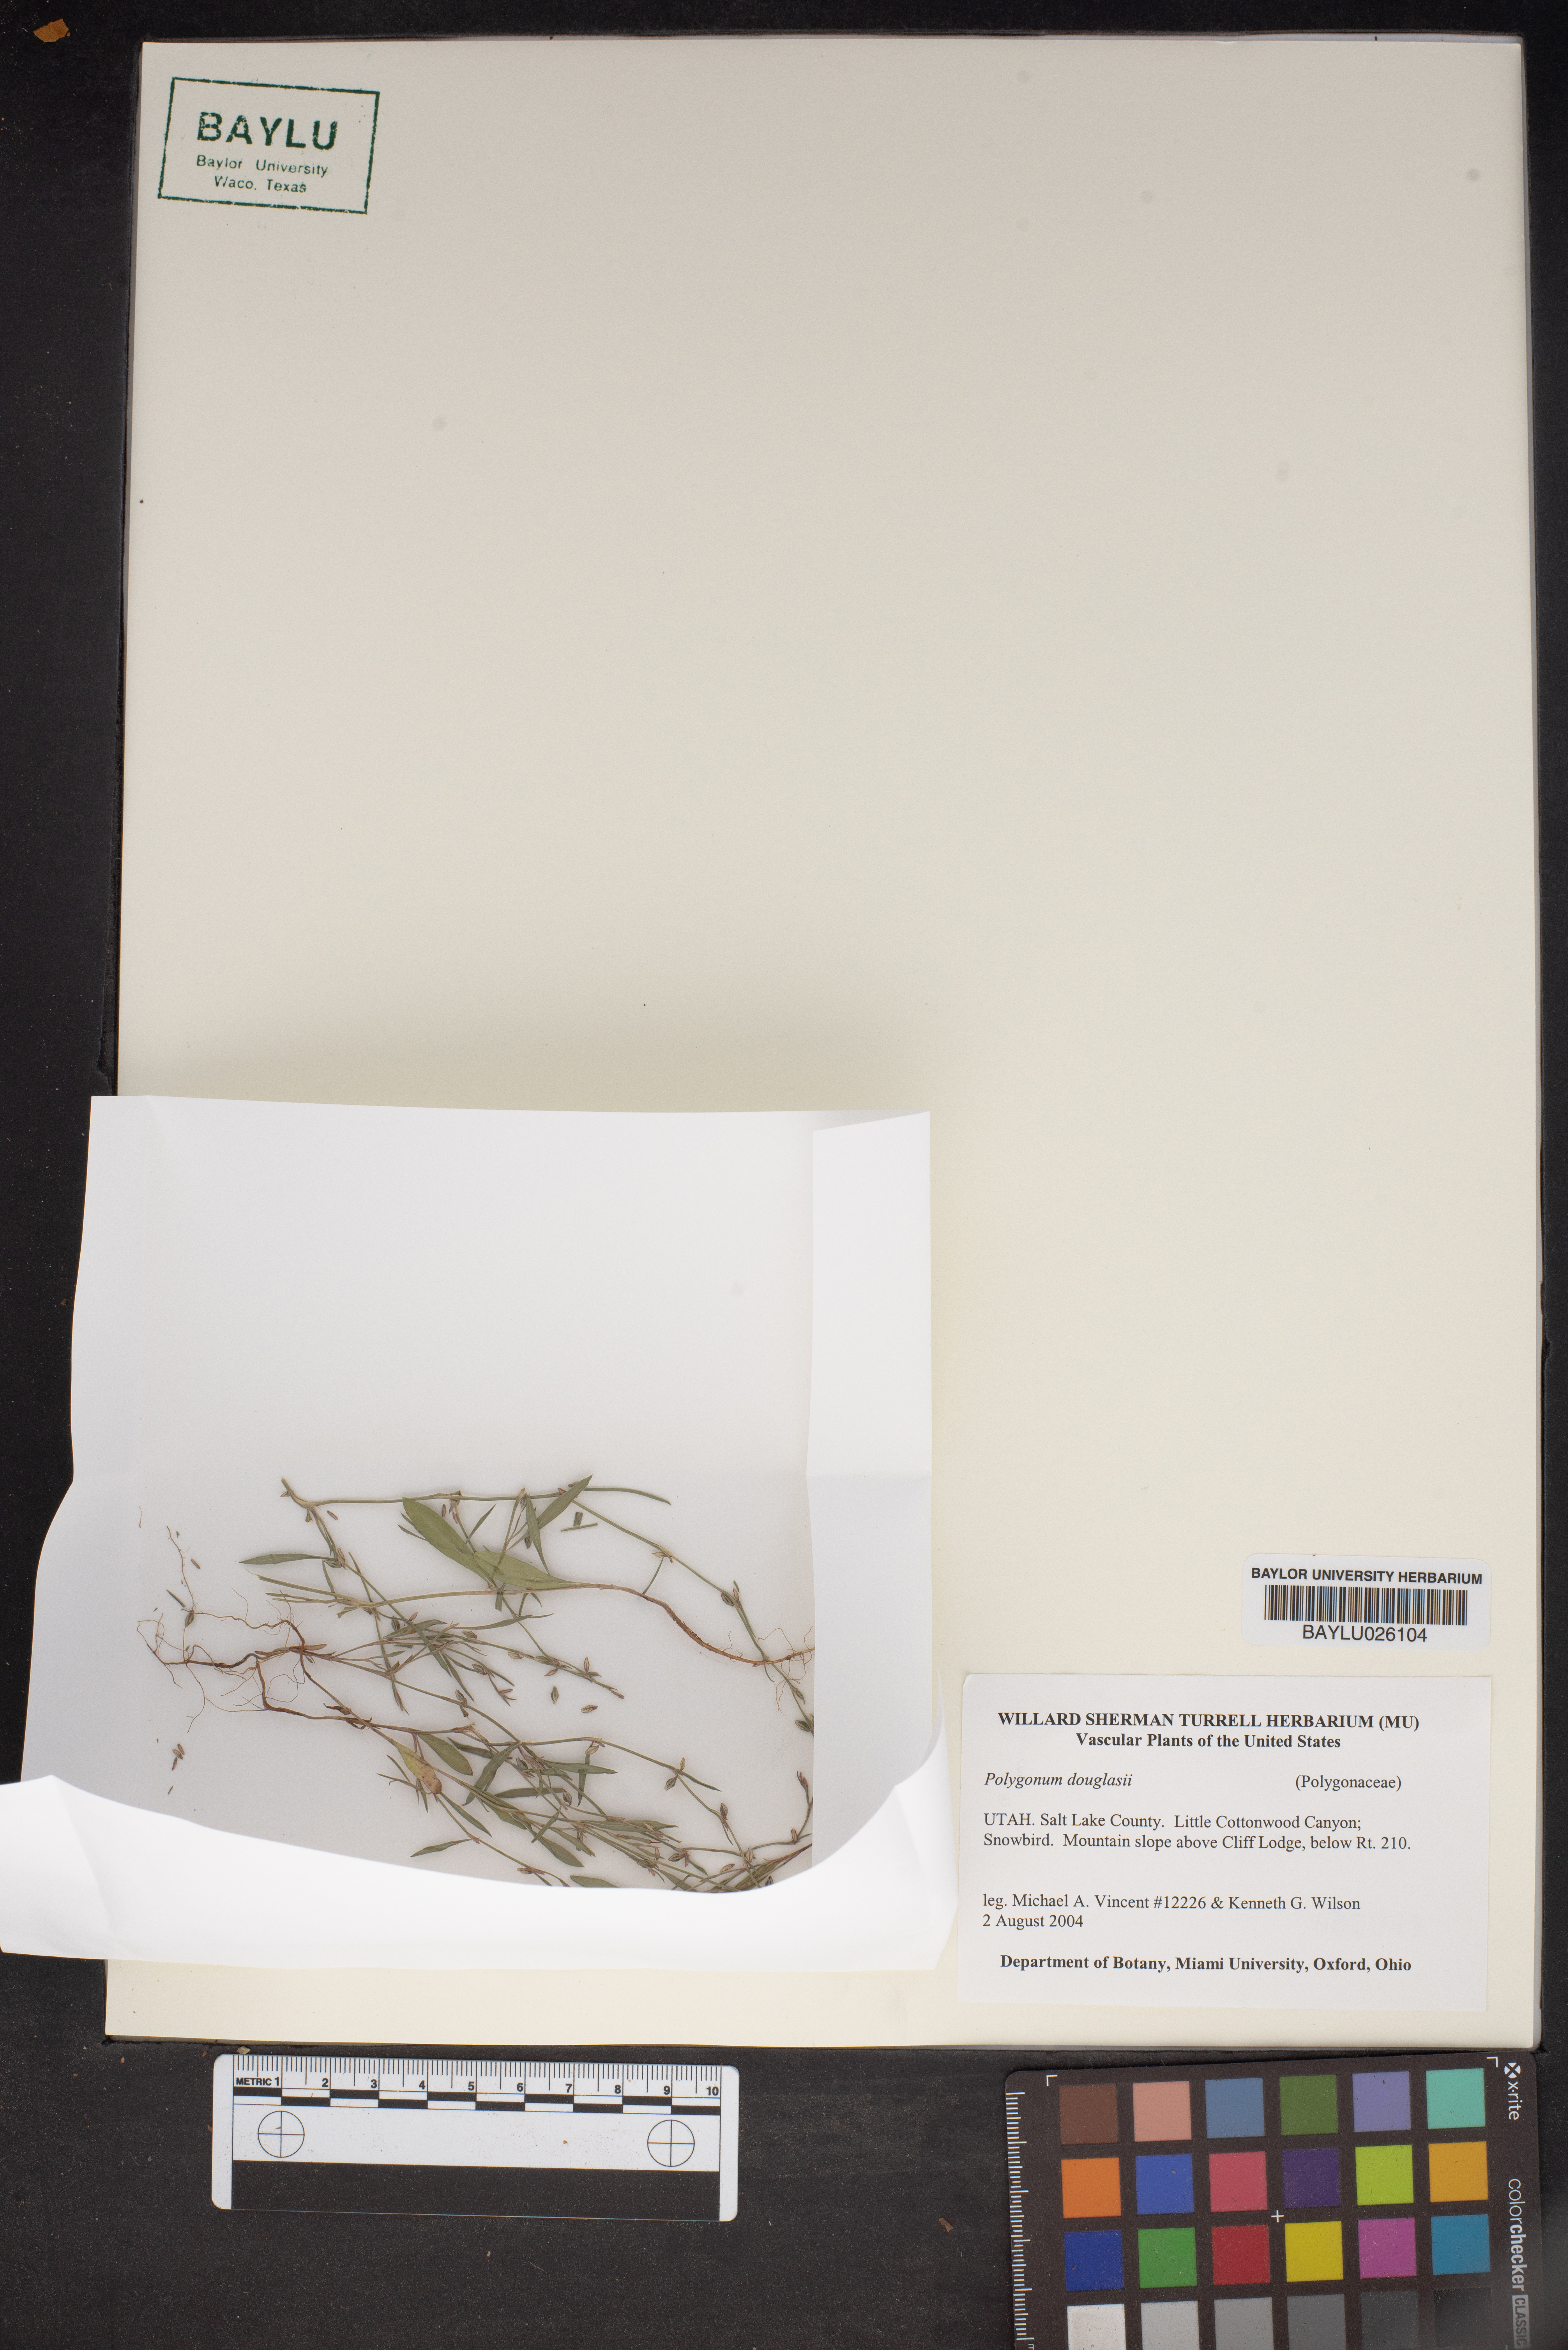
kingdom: Plantae
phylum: Tracheophyta
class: Magnoliopsida
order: Caryophyllales
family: Polygonaceae
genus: Polygonum
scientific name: Polygonum douglasii
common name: Douglas' knotweed
